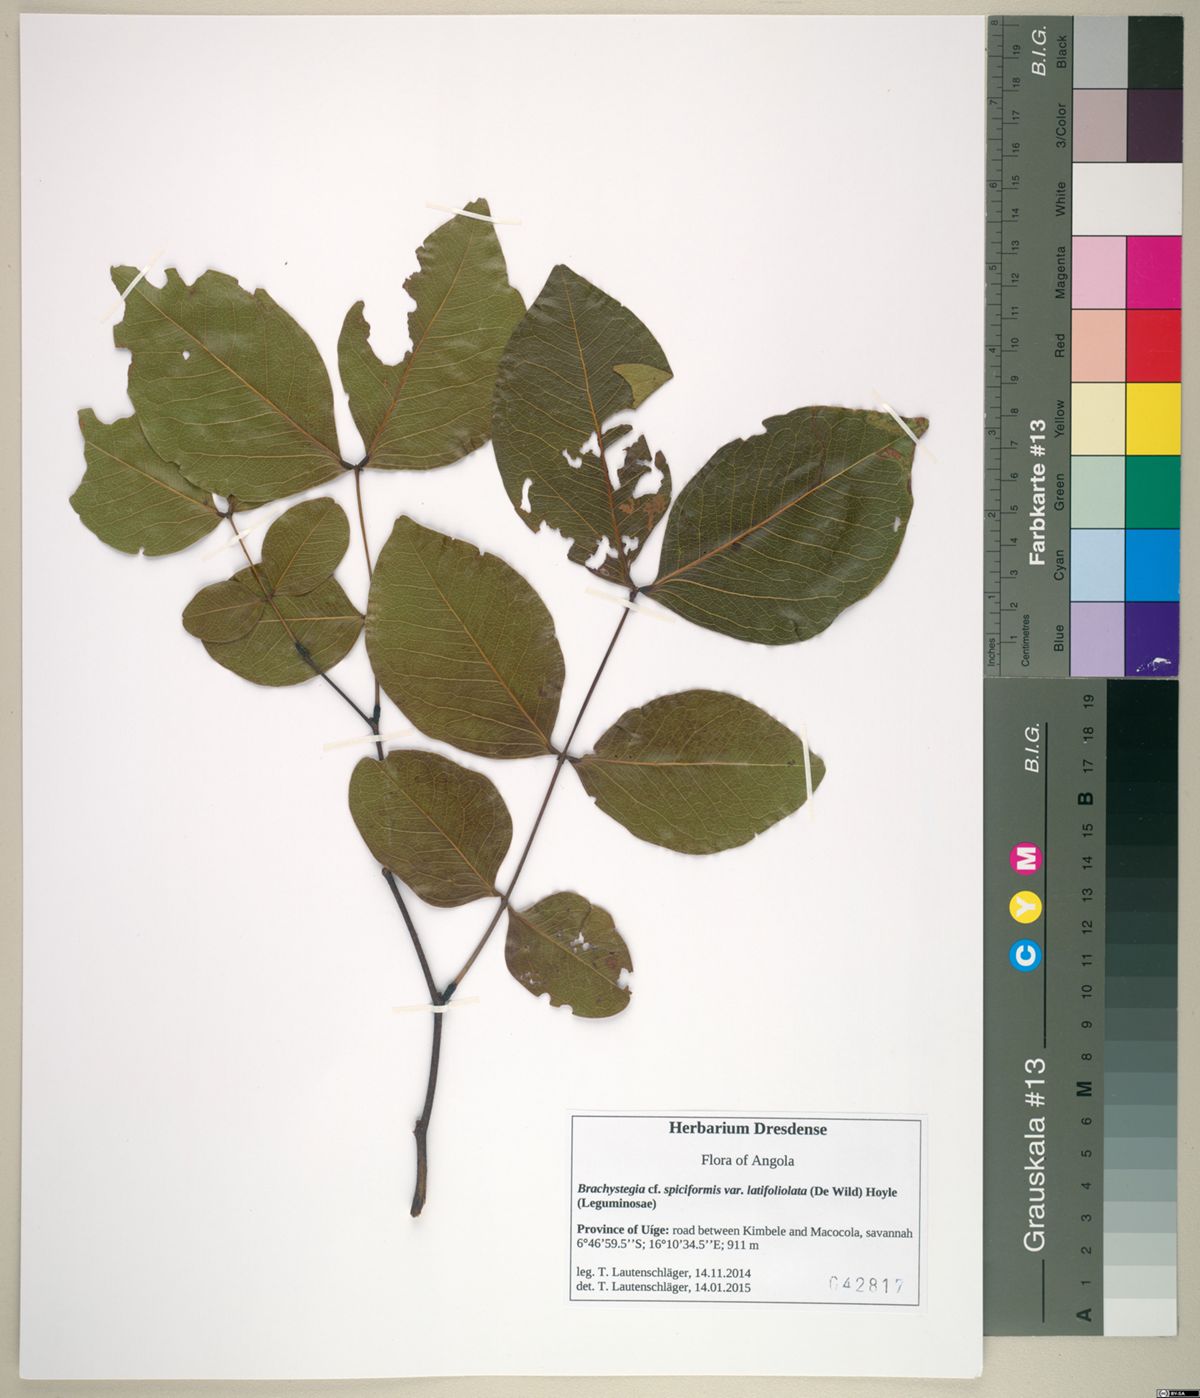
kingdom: Plantae
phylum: Tracheophyta
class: Magnoliopsida
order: Fabales
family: Fabaceae
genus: Brachystegia
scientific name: Brachystegia spiciformis
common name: Zebrawood
